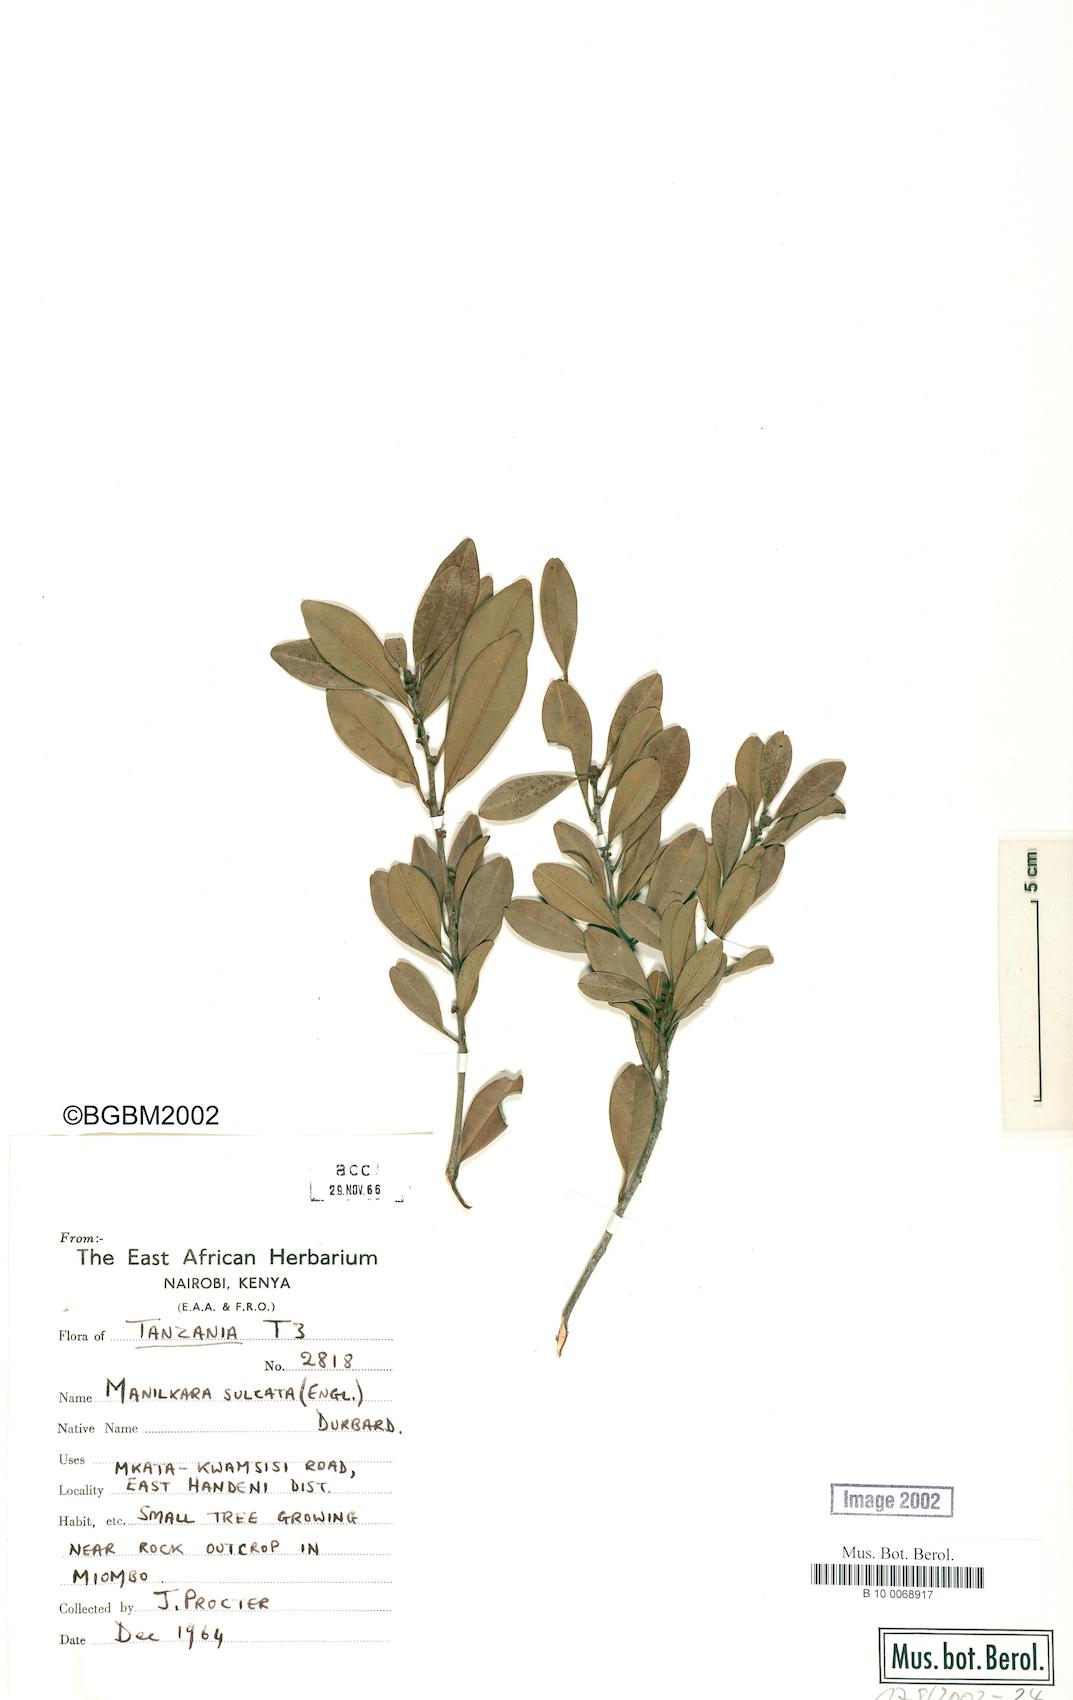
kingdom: Plantae
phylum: Tracheophyta
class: Magnoliopsida
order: Ericales
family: Sapotaceae
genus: Manilkara
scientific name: Manilkara sulcata
